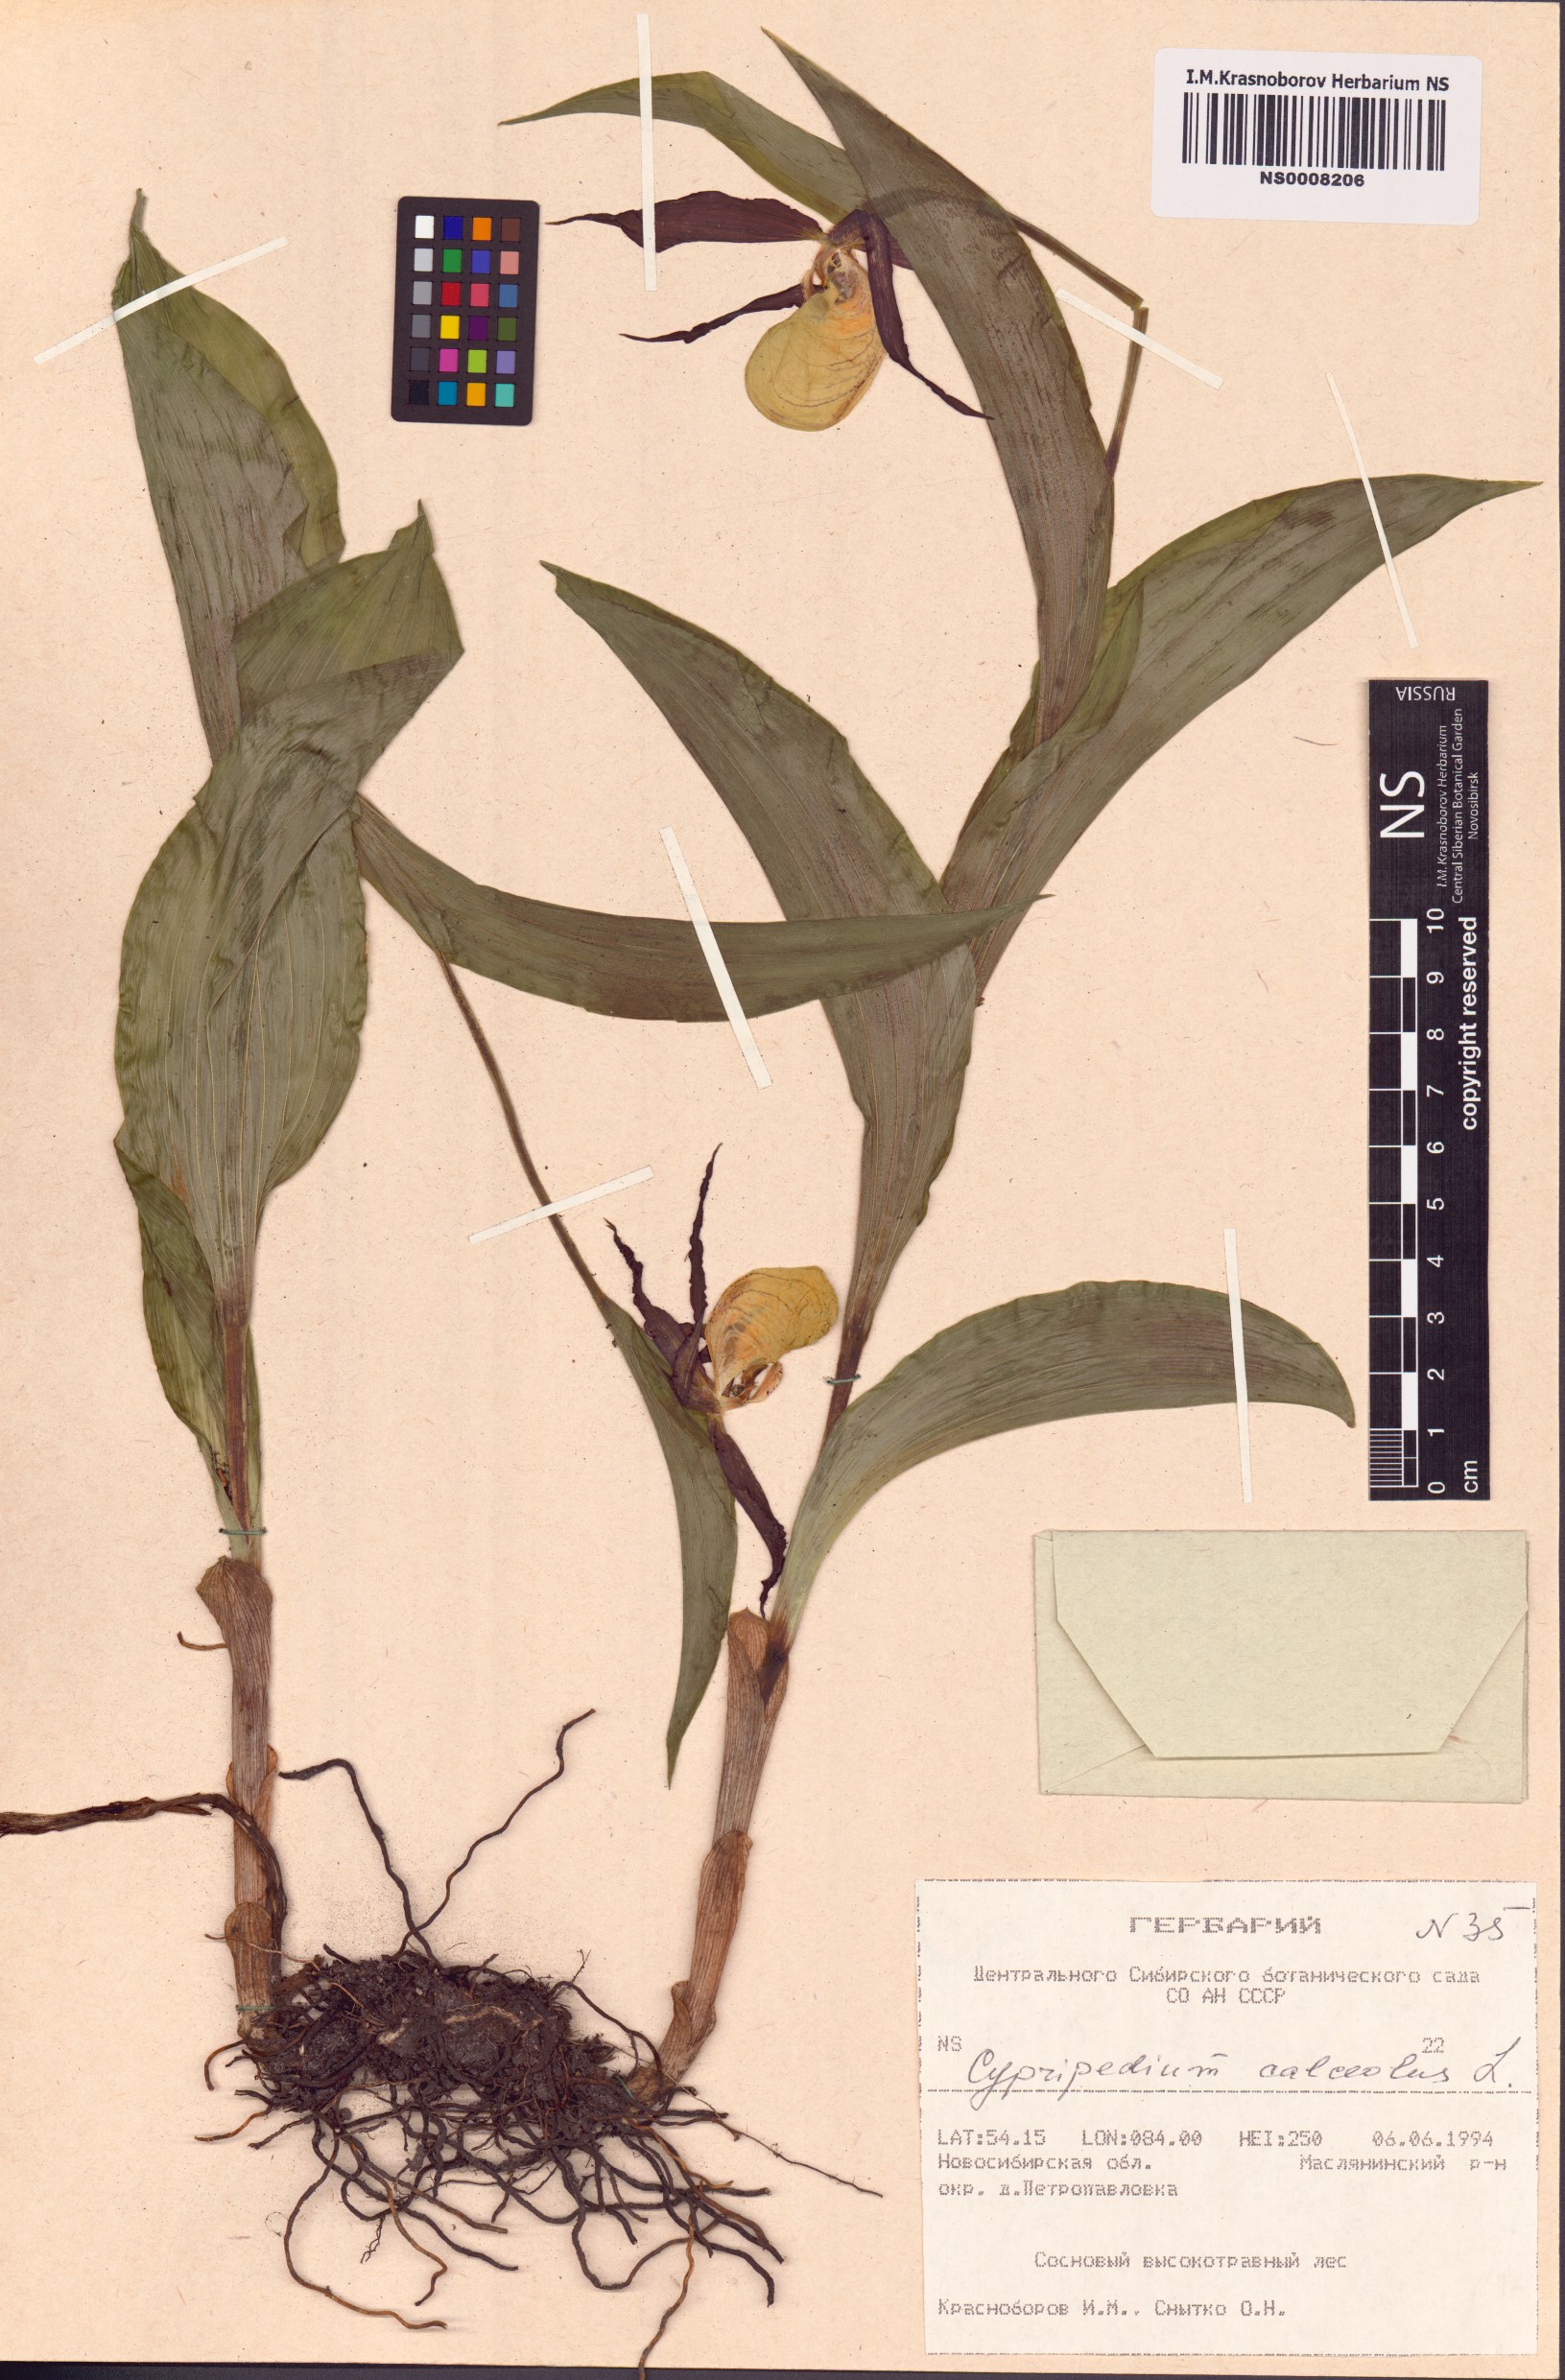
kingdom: Plantae
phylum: Tracheophyta
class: Liliopsida
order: Asparagales
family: Orchidaceae
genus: Cypripedium
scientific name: Cypripedium calceolus
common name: Lady's-slipper
